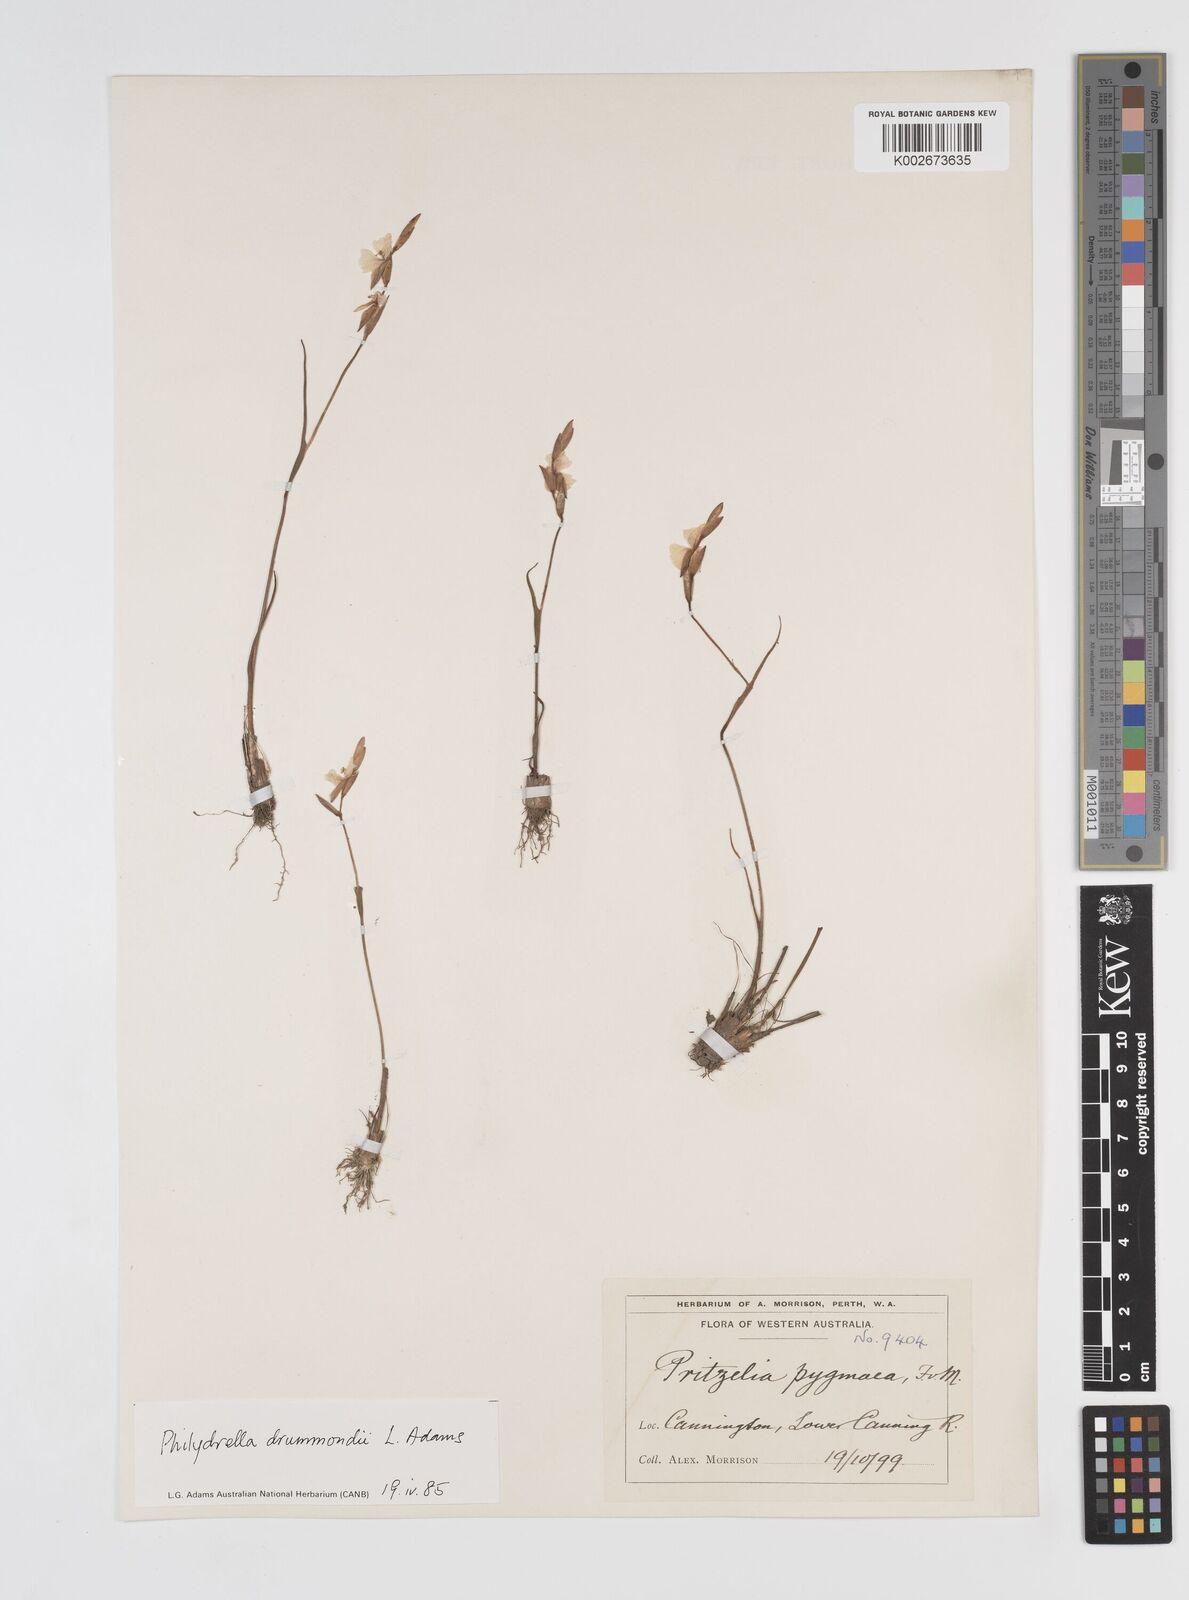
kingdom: Plantae
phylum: Tracheophyta
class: Liliopsida
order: Commelinales
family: Philydraceae
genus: Philydrella
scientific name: Philydrella drummondii
